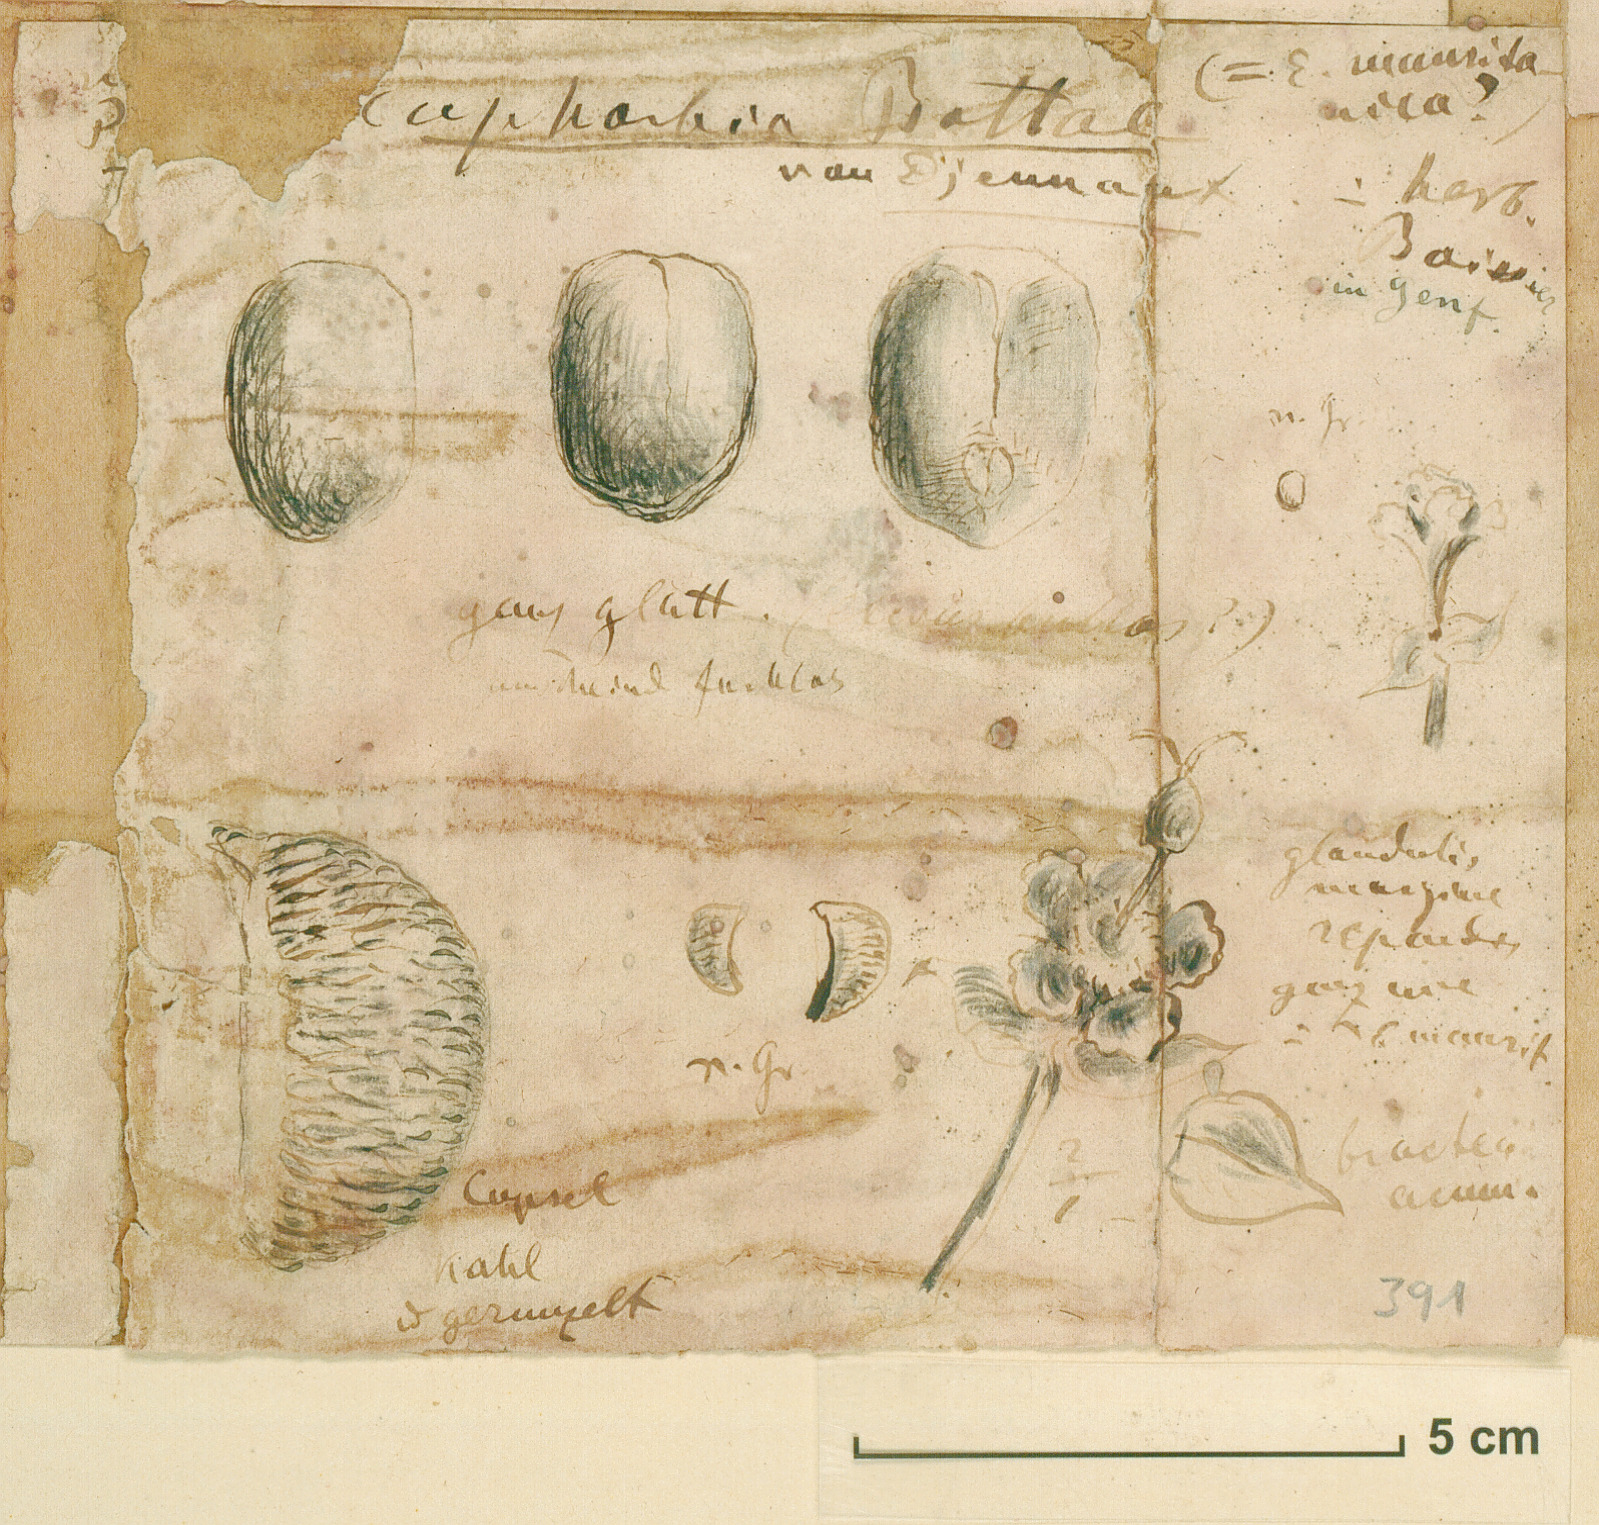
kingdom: Plantae
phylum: Tracheophyta
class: Magnoliopsida
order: Malpighiales
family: Euphorbiaceae
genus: Euphorbia
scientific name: Euphorbia bottae
